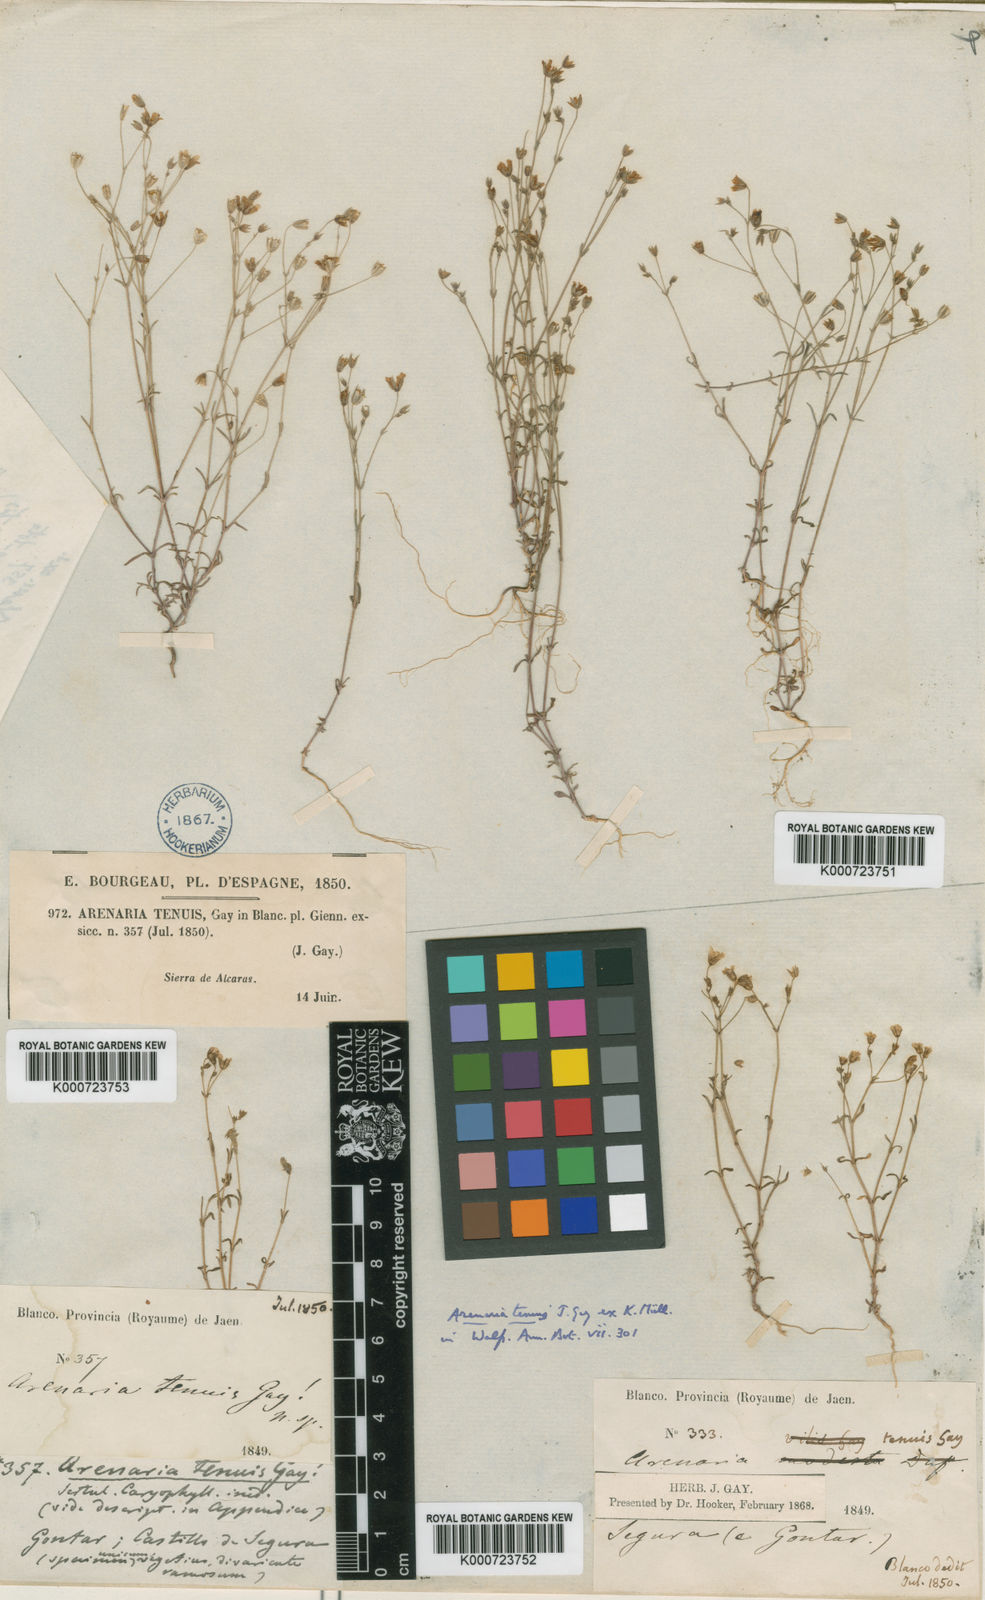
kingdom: Plantae
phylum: Tracheophyta
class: Magnoliopsida
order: Caryophyllales
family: Caryophyllaceae
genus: Arenaria
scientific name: Arenaria modesta
